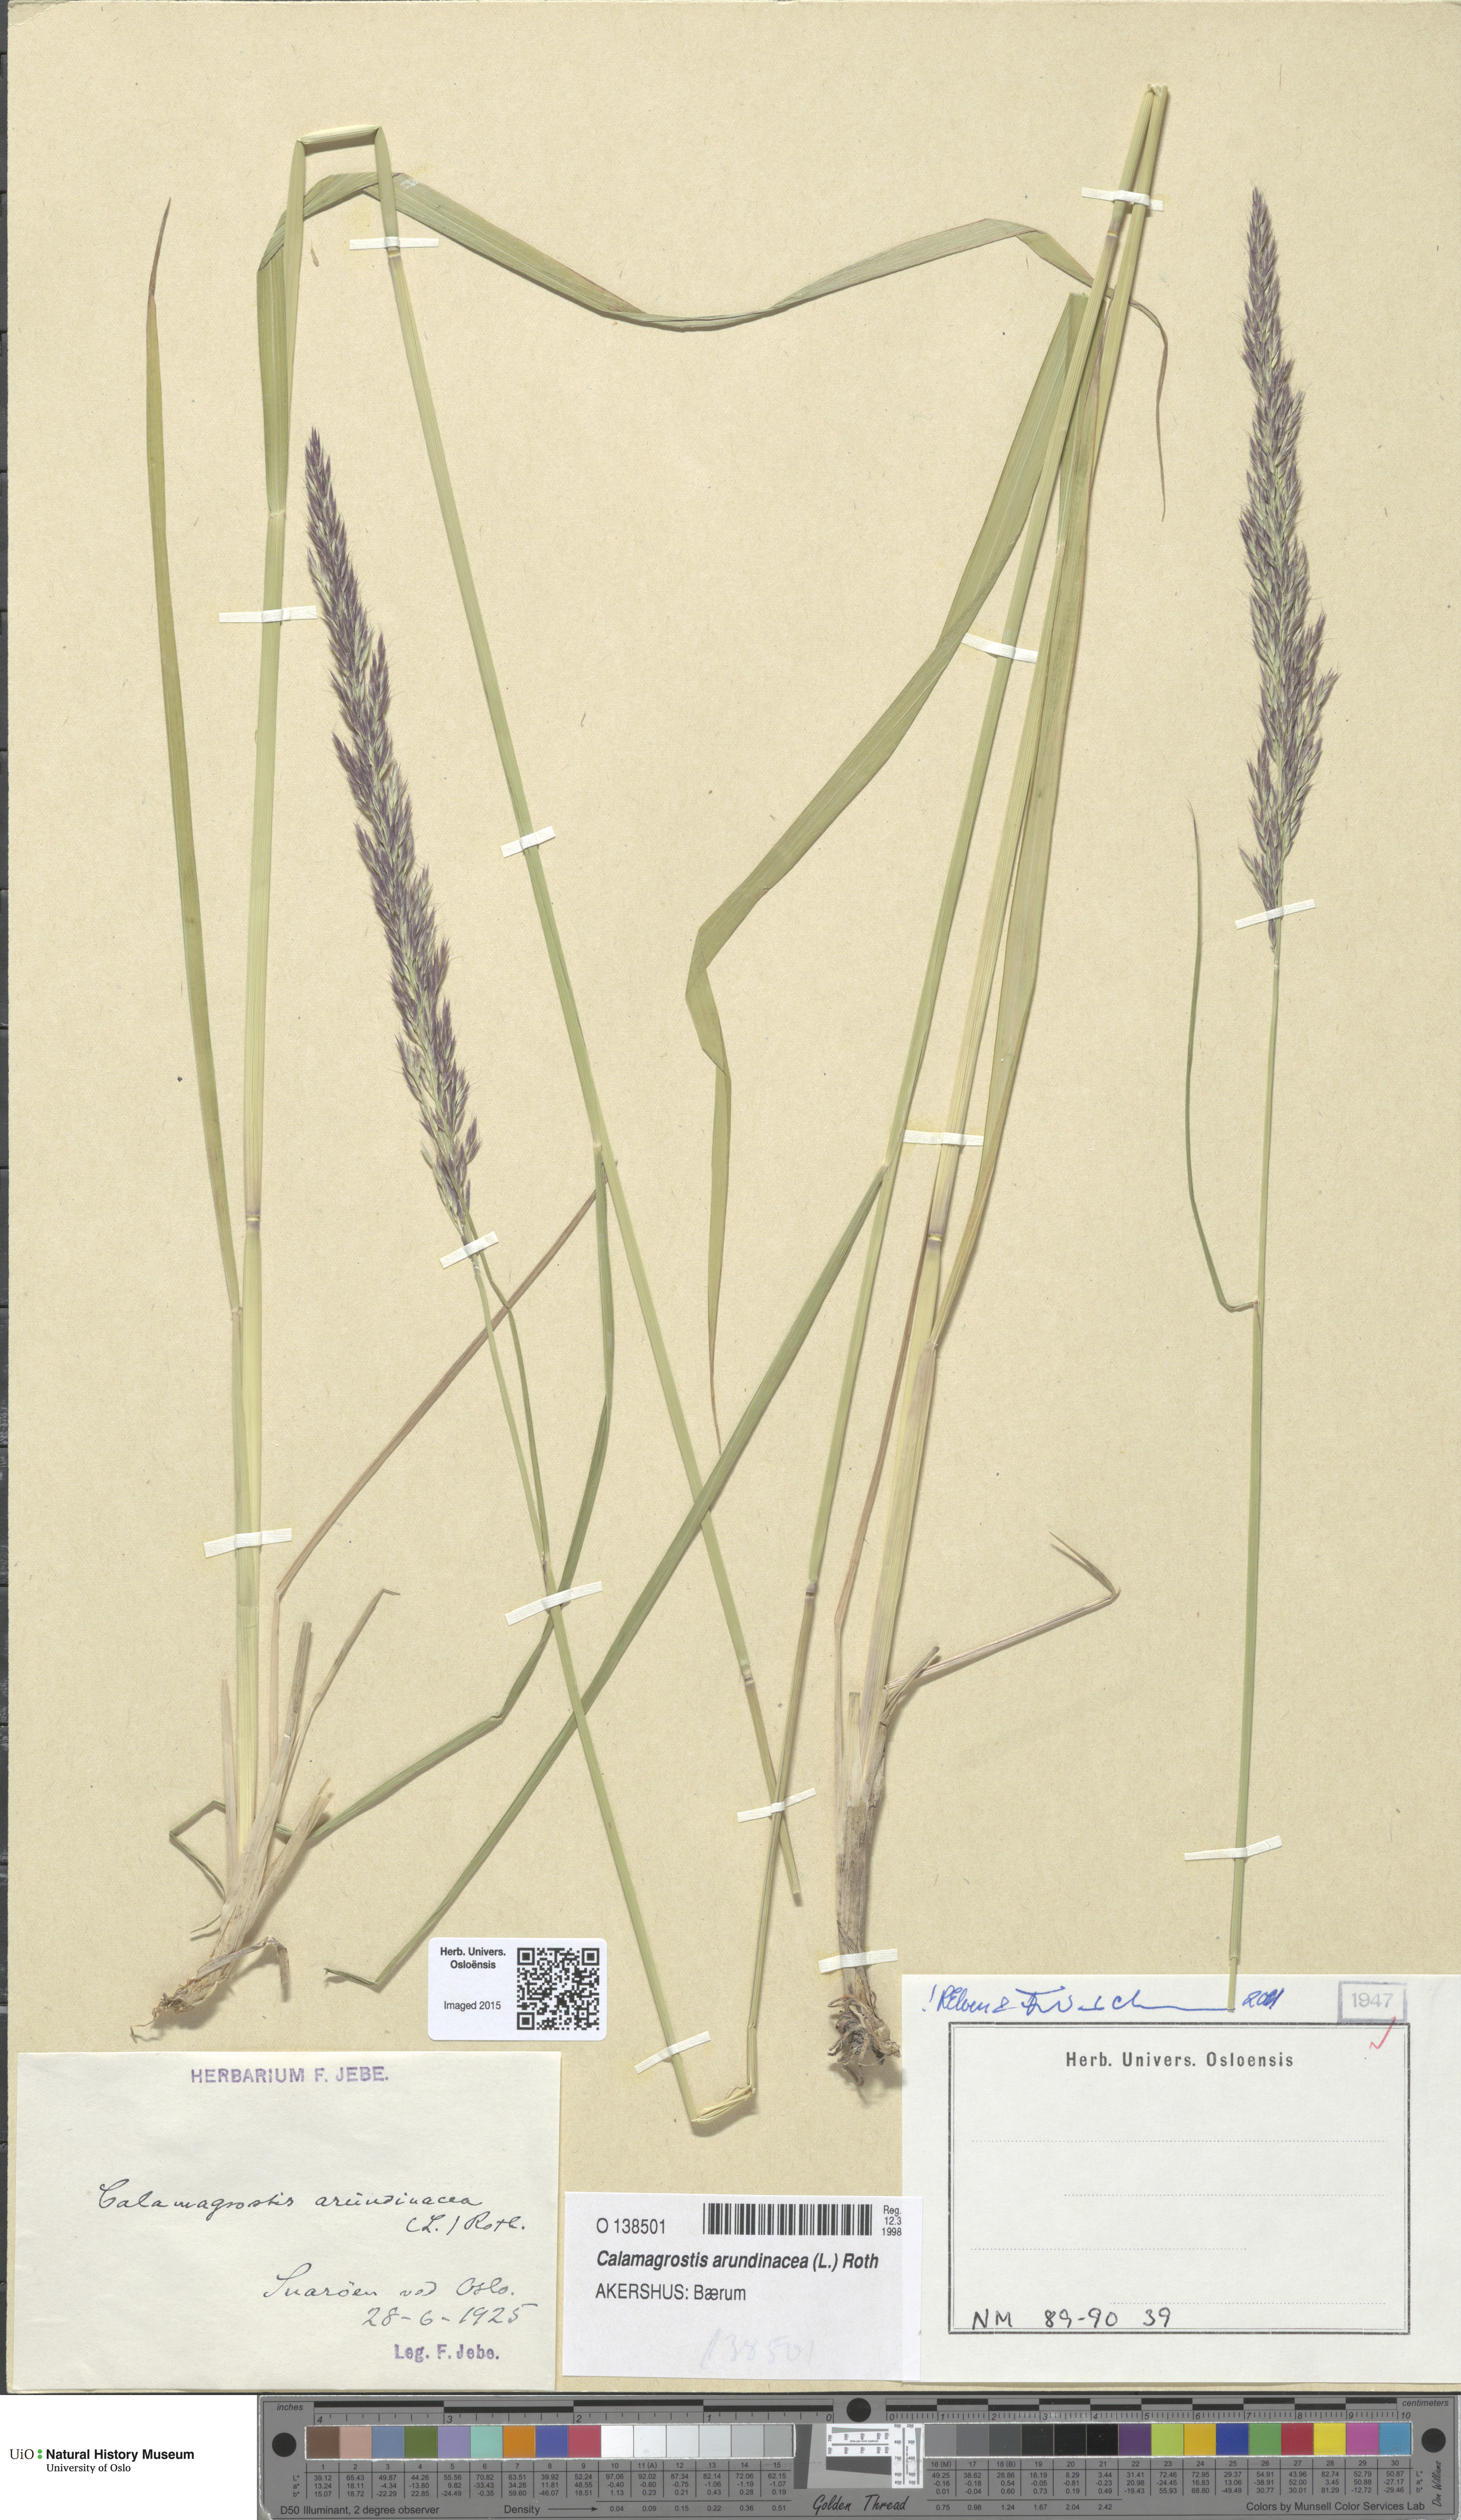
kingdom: Plantae
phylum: Tracheophyta
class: Liliopsida
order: Poales
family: Poaceae
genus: Calamagrostis
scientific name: Calamagrostis arundinacea
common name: Metskastik
